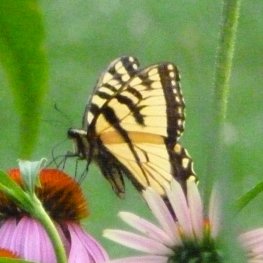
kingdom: Animalia
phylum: Arthropoda
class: Insecta
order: Lepidoptera
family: Papilionidae
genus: Pterourus
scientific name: Pterourus glaucus
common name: Eastern Tiger Swallowtail
